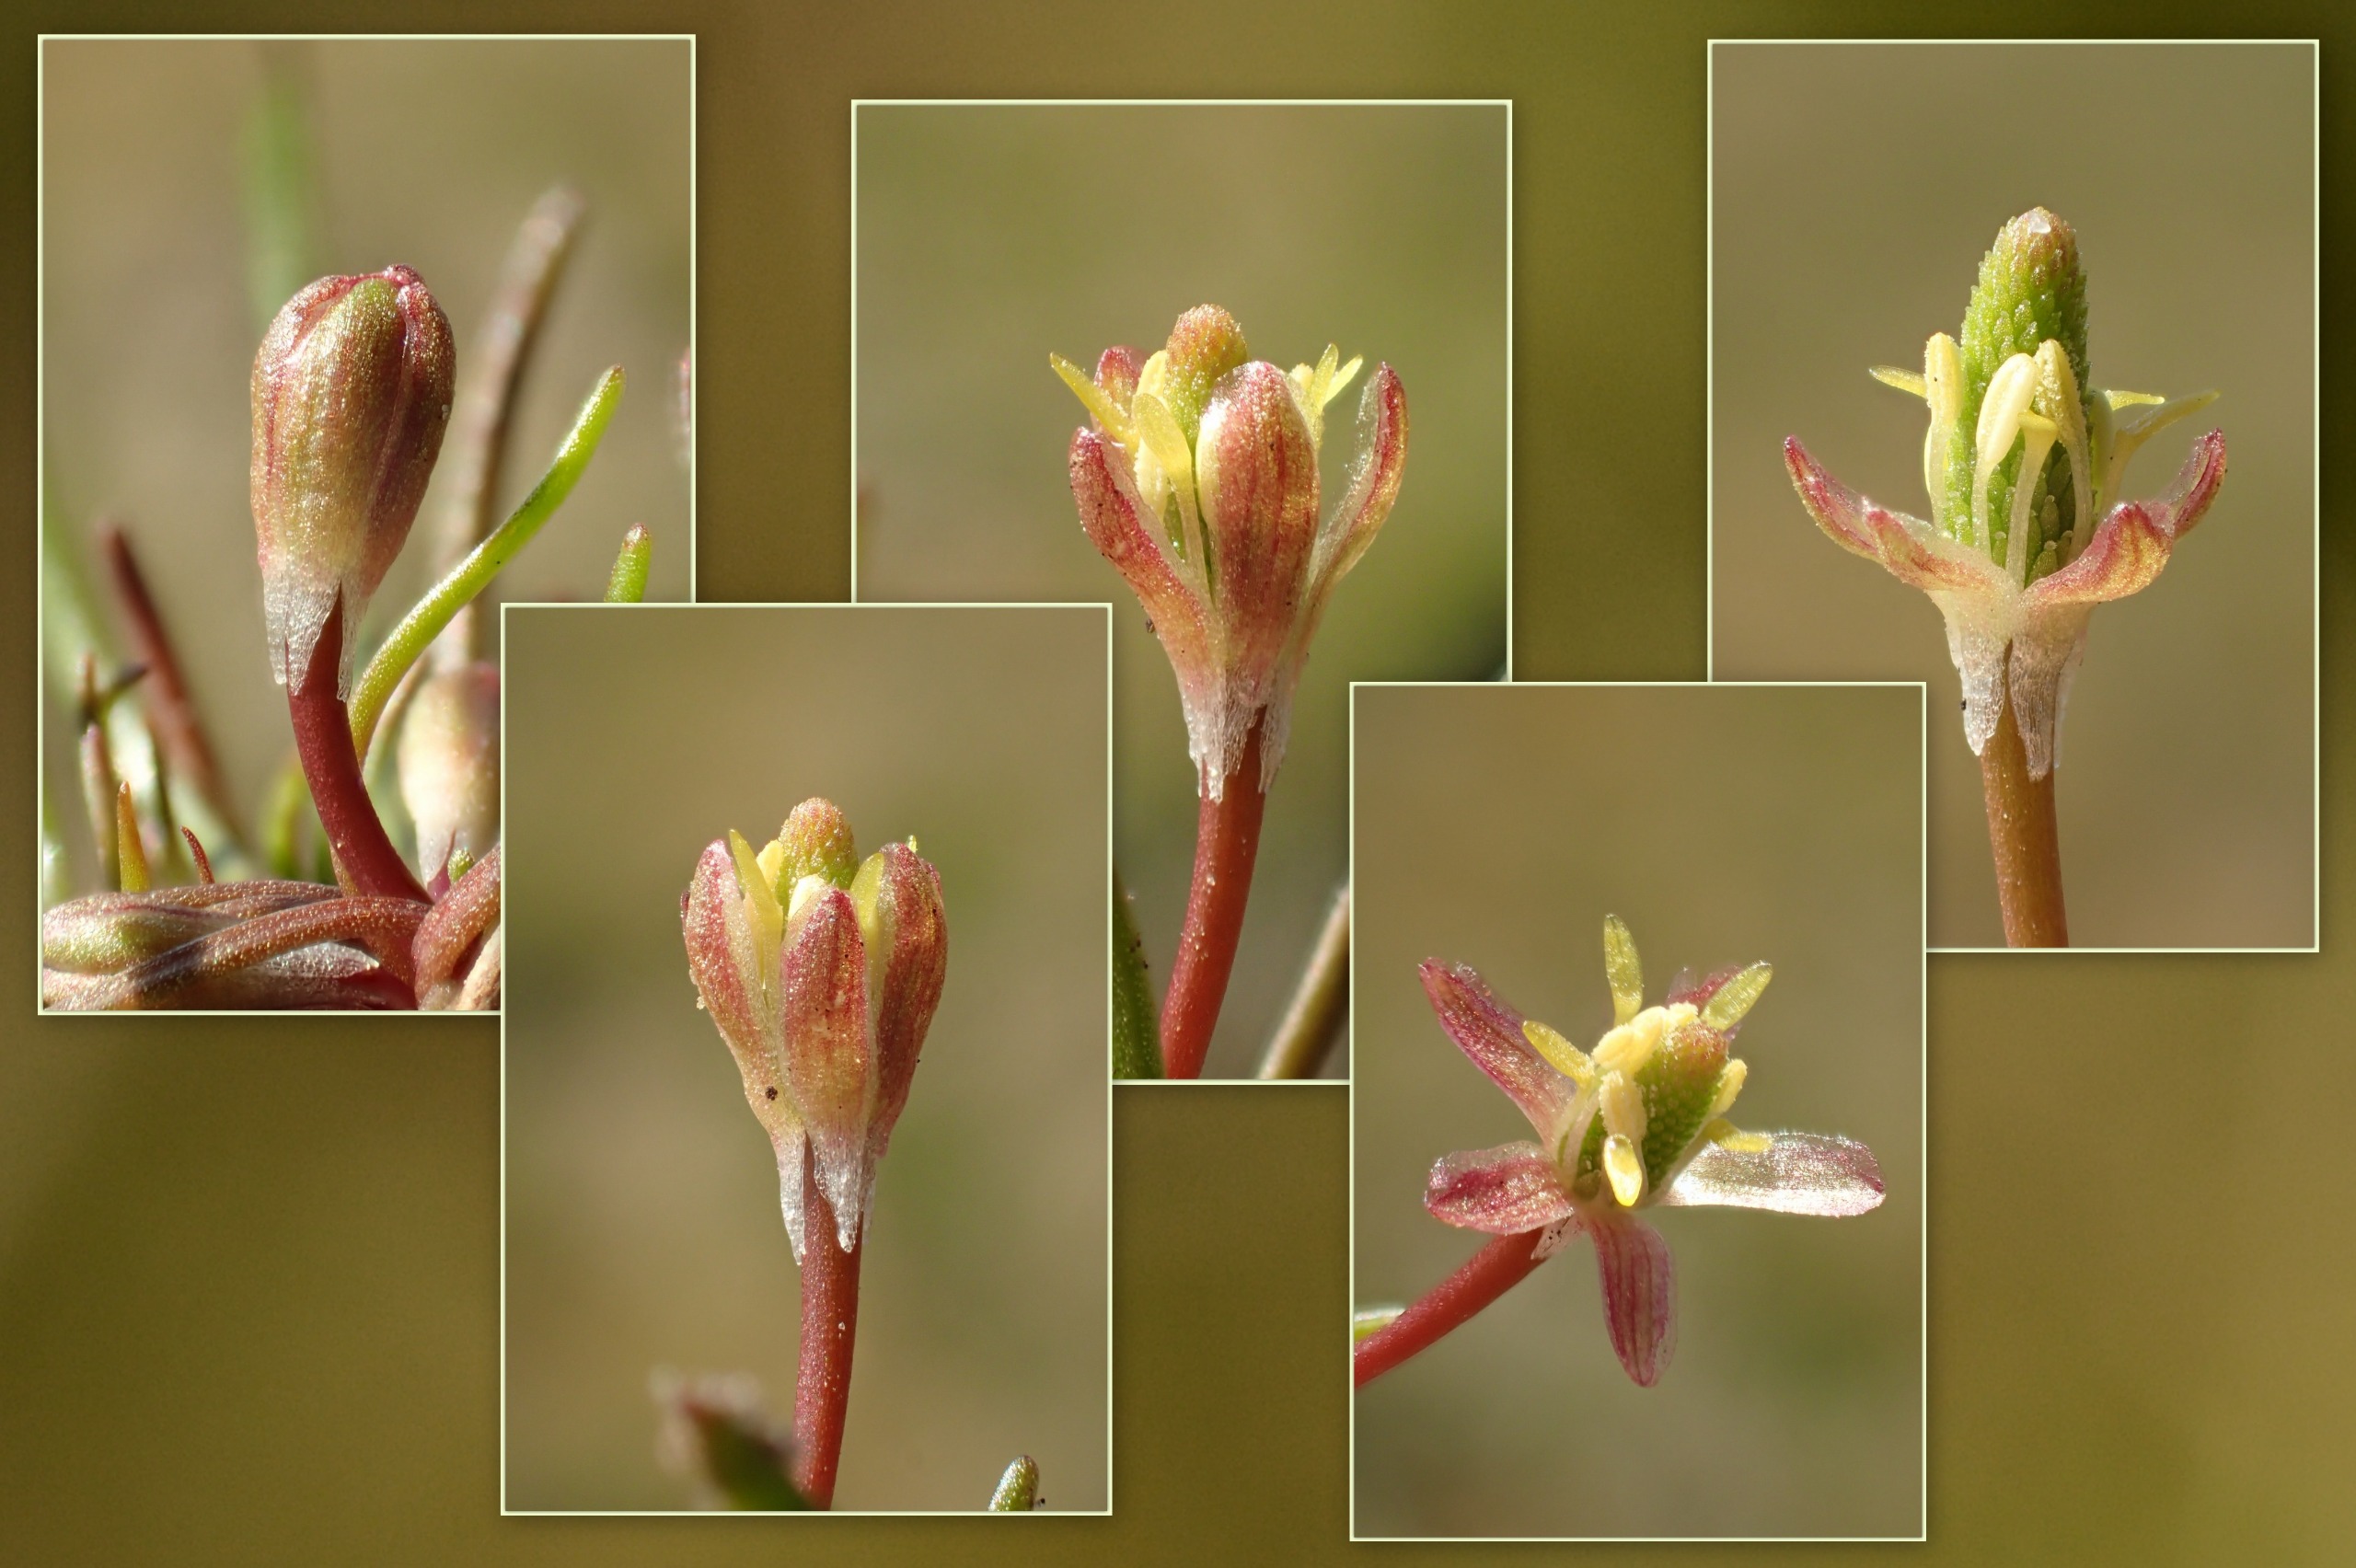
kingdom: Plantae
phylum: Tracheophyta
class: Magnoliopsida
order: Ranunculales
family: Ranunculaceae
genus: Myosurus
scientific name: Myosurus minimus
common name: Musehale
